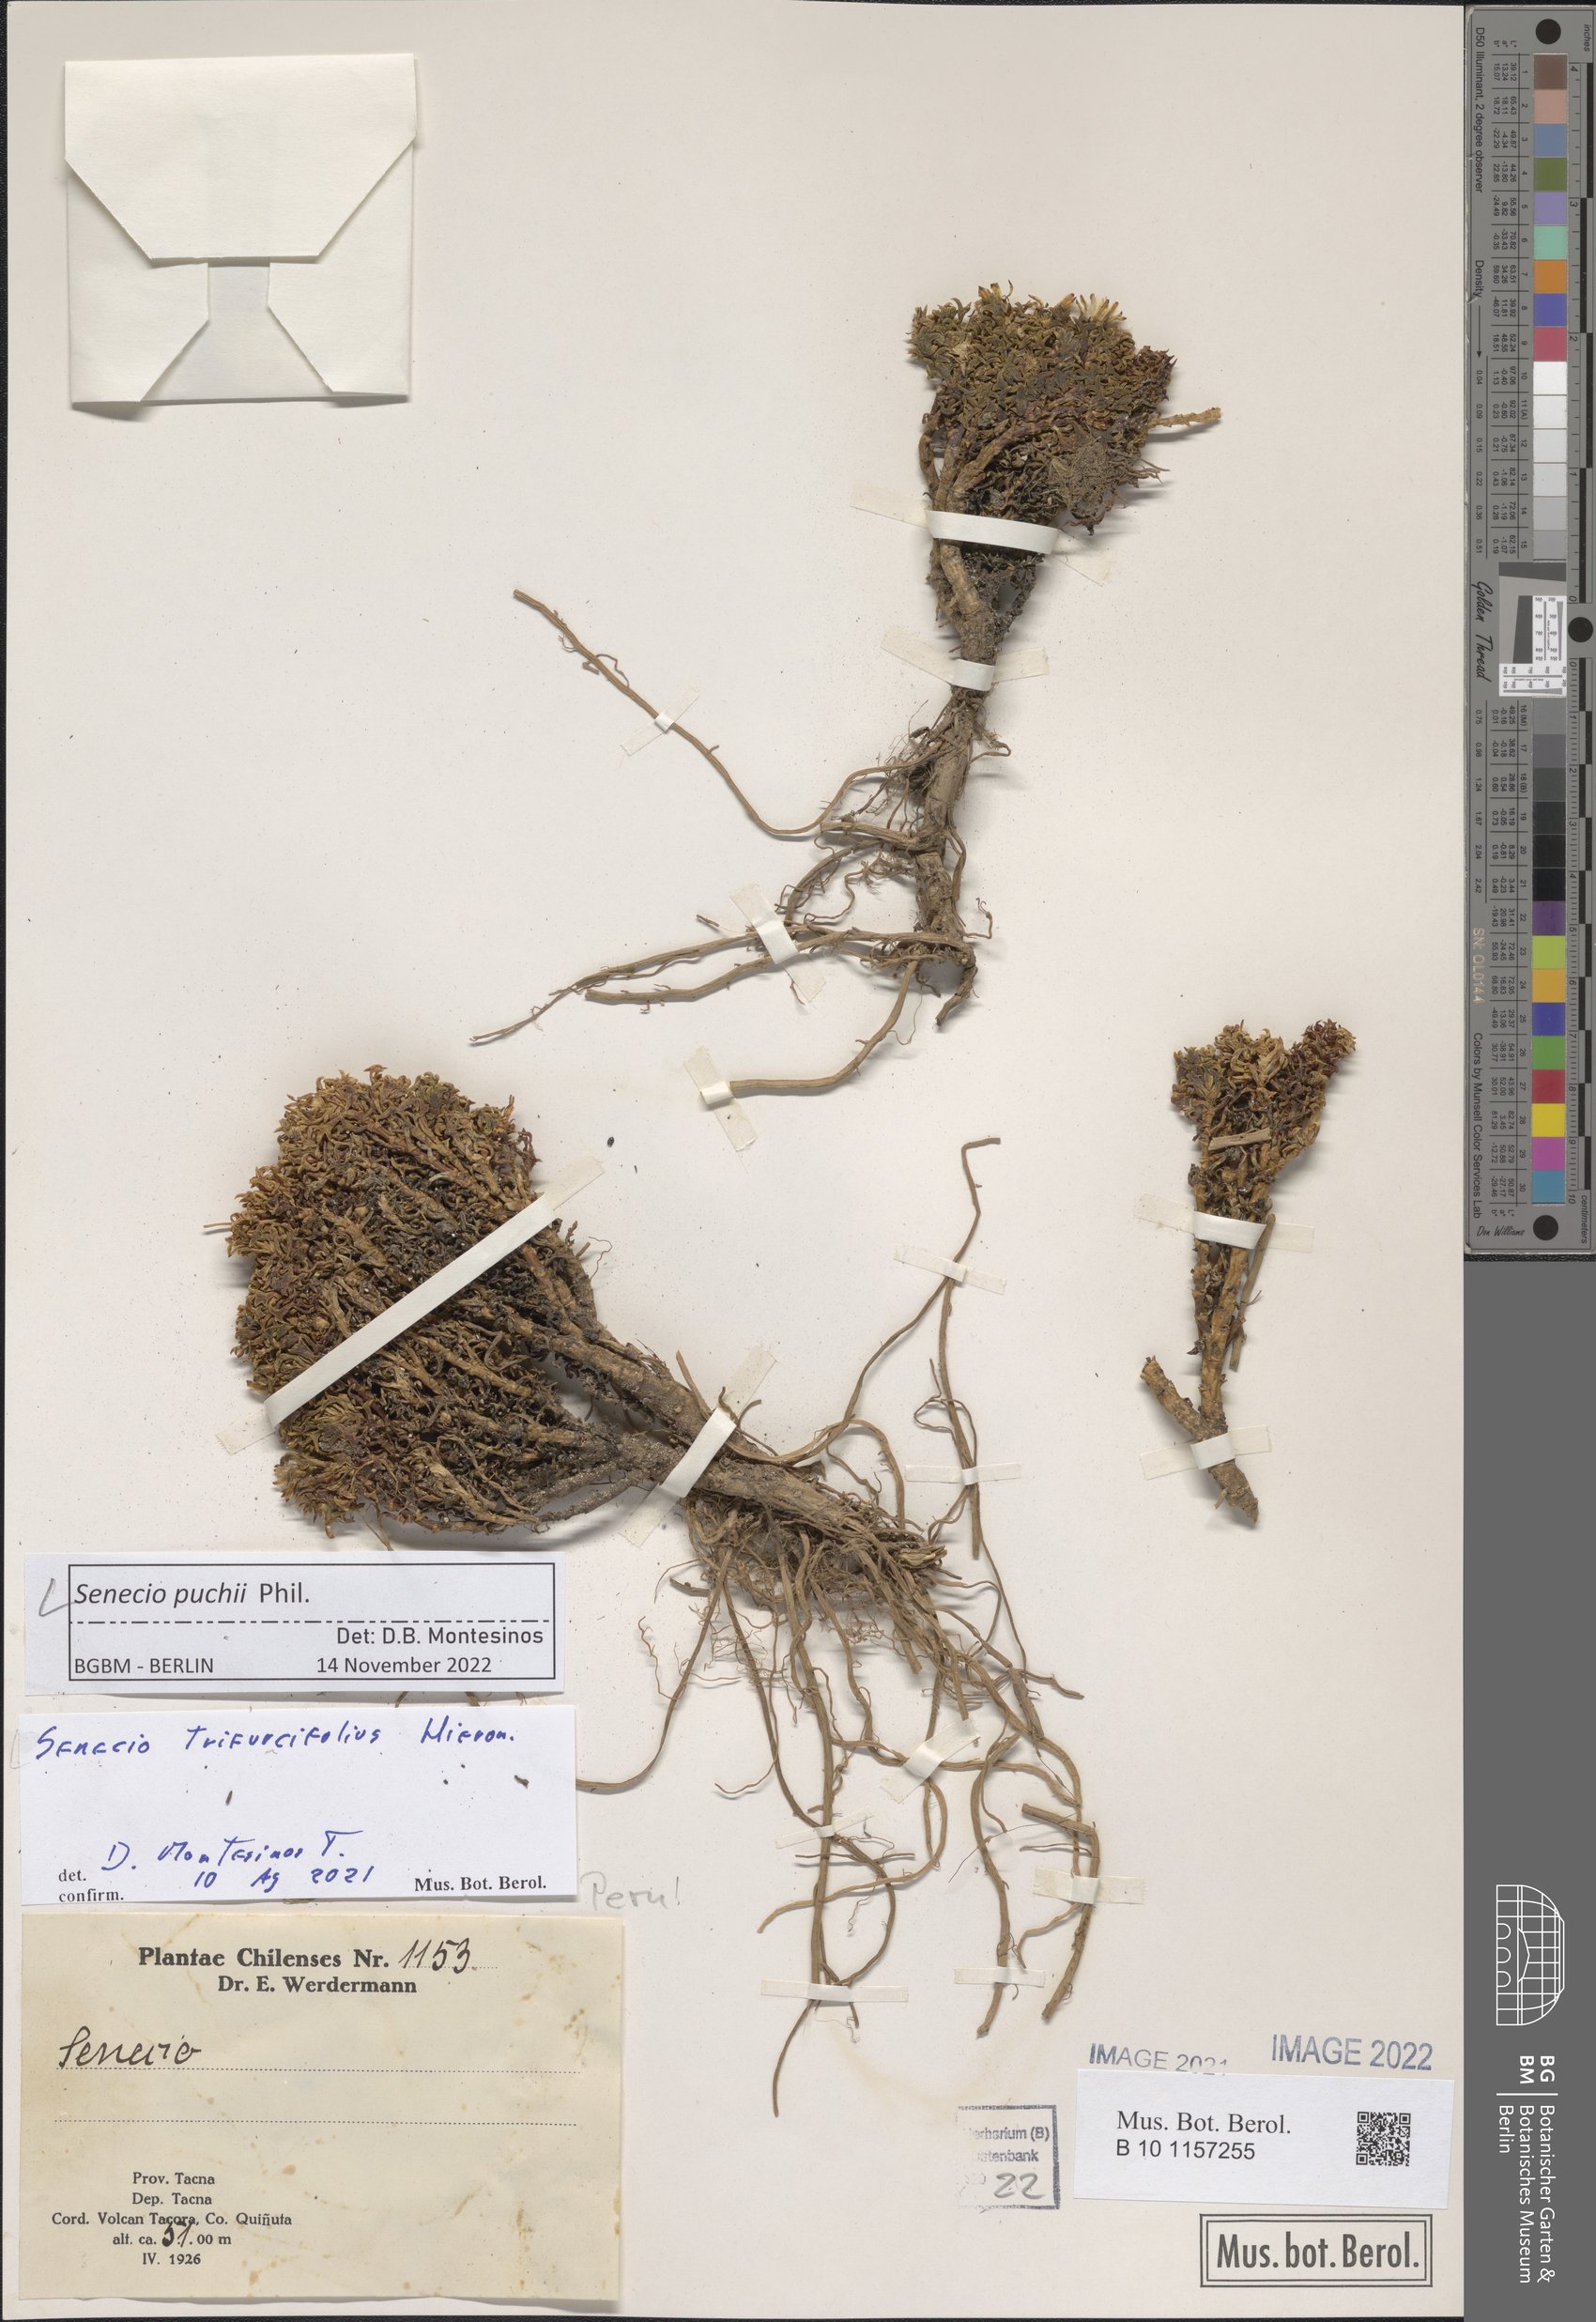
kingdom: Plantae
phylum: Tracheophyta
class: Magnoliopsida
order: Asterales
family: Asteraceae
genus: Senecio
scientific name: Senecio puchei
